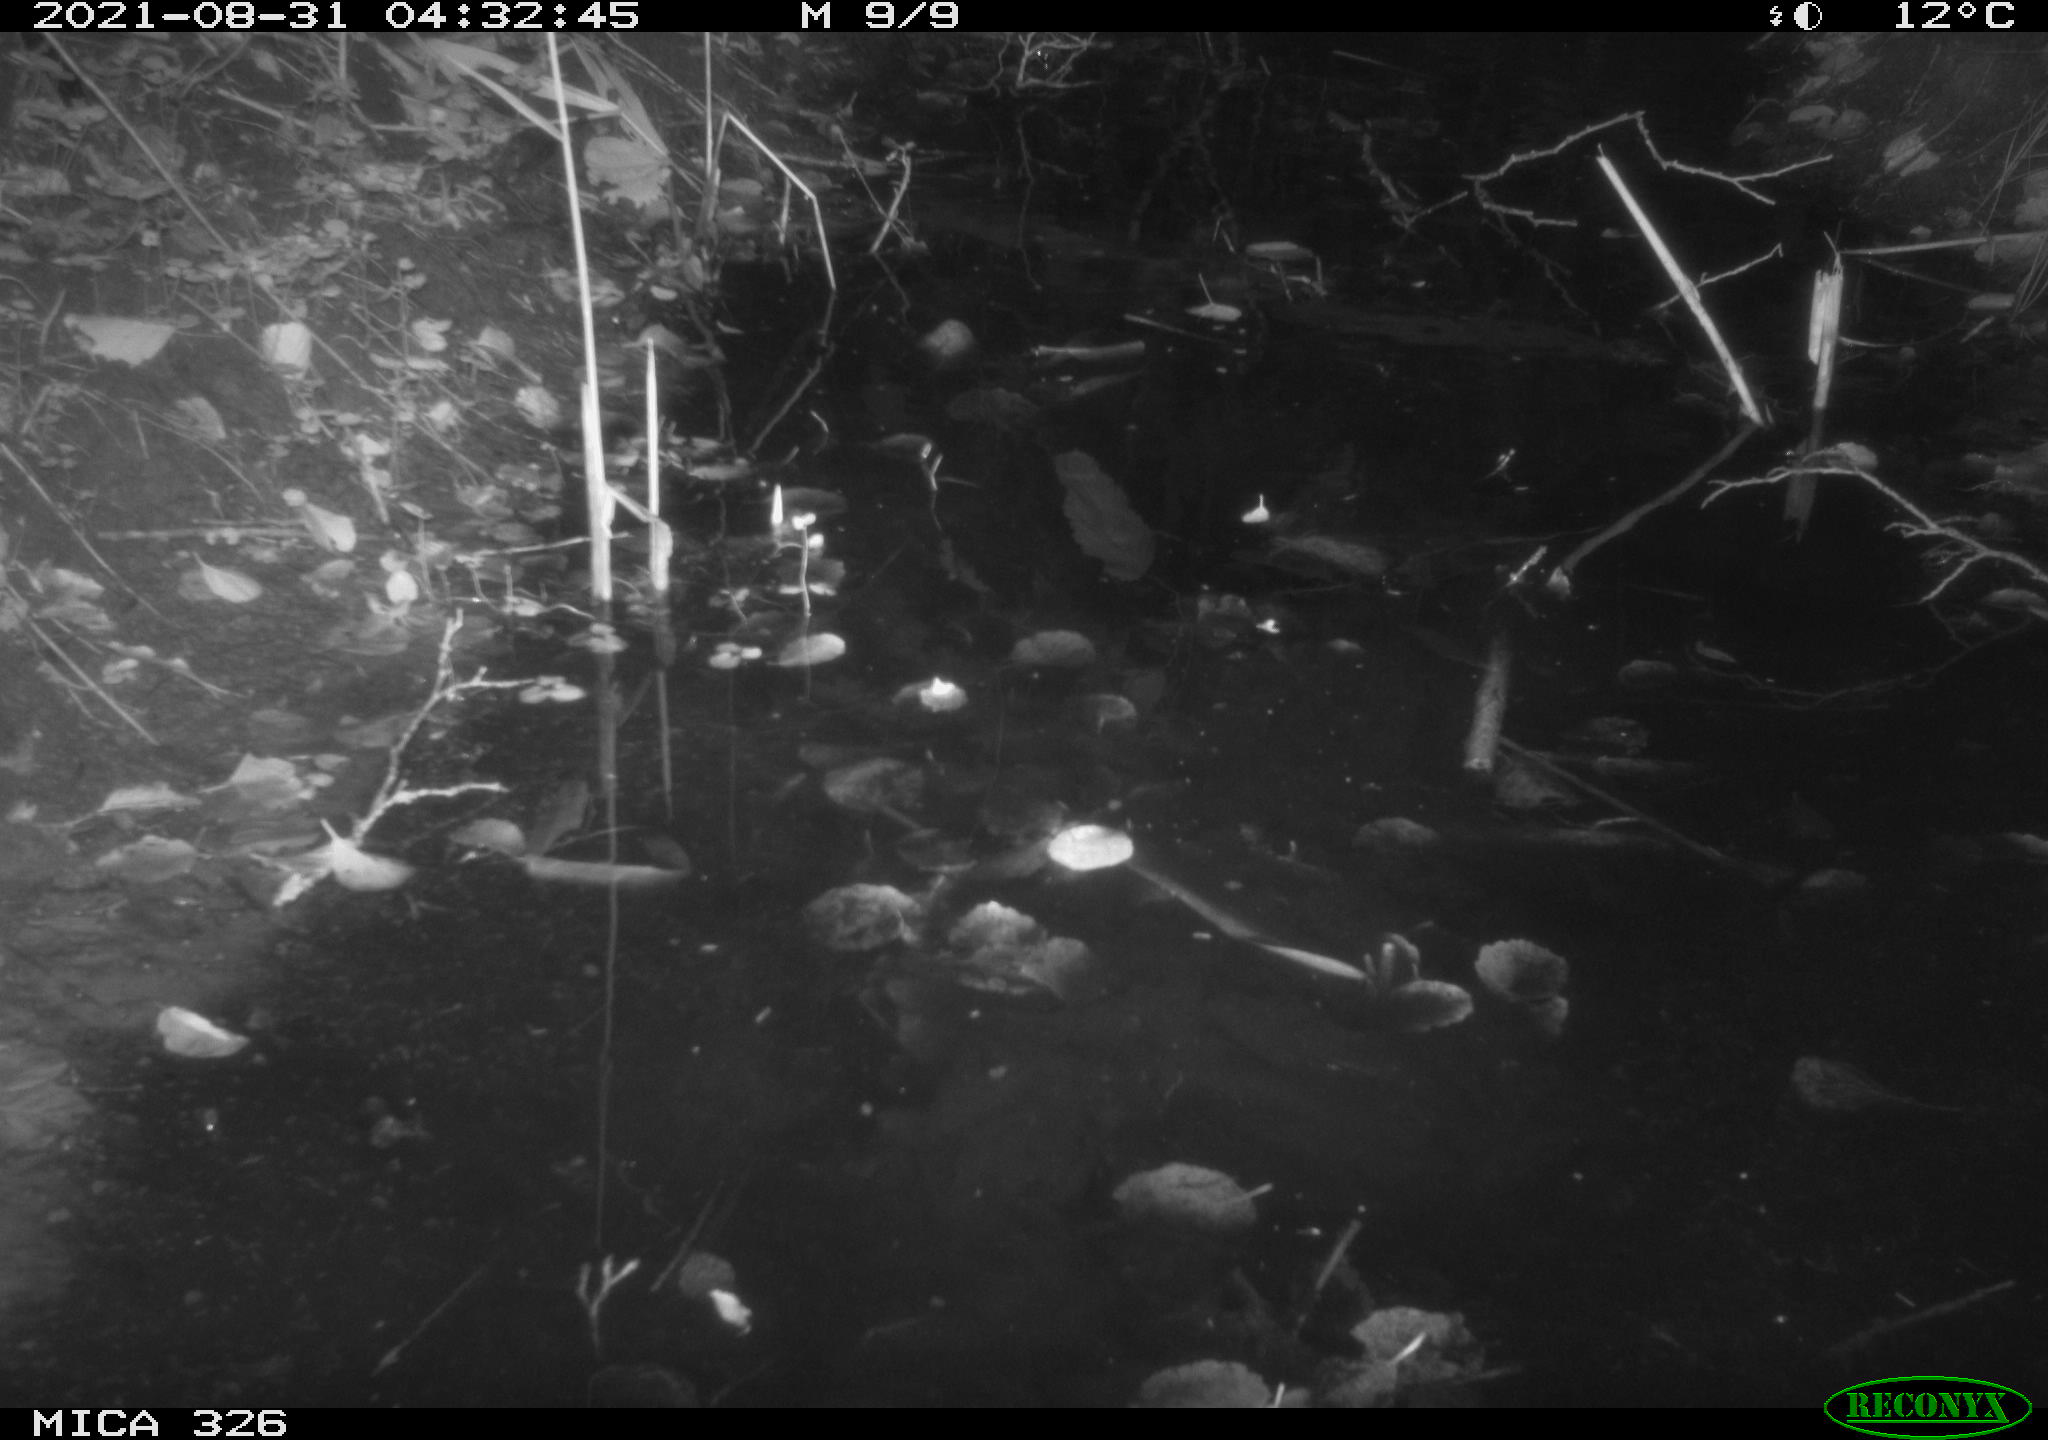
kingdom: Animalia
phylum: Chordata
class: Mammalia
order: Rodentia
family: Cricetidae
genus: Ondatra
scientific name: Ondatra zibethicus
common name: Muskrat
